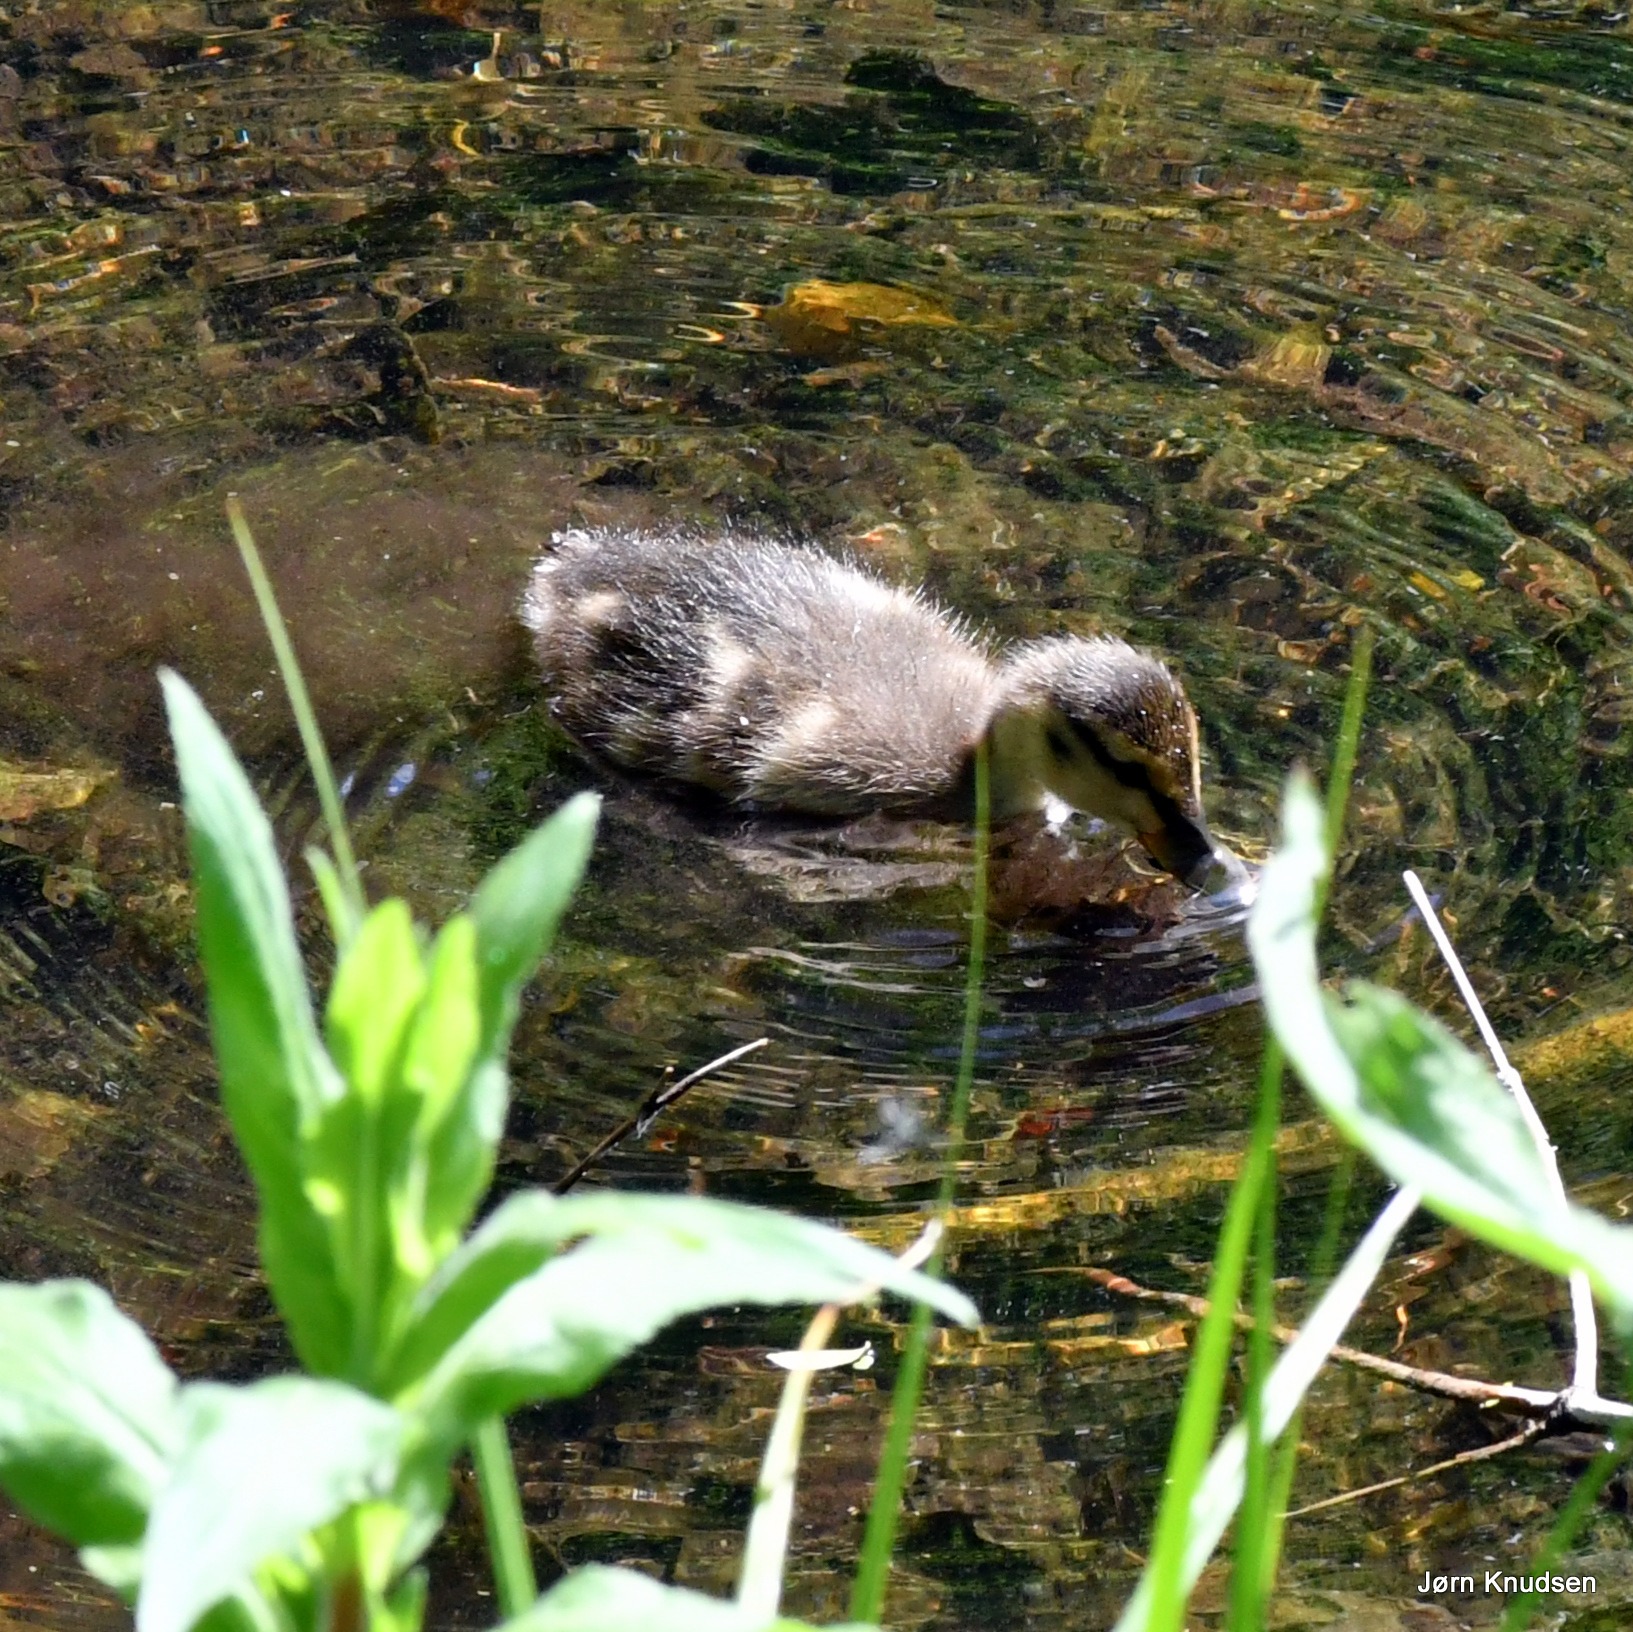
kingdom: Animalia
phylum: Chordata
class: Aves
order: Anseriformes
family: Anatidae
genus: Anas
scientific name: Anas platyrhynchos
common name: Gråand
